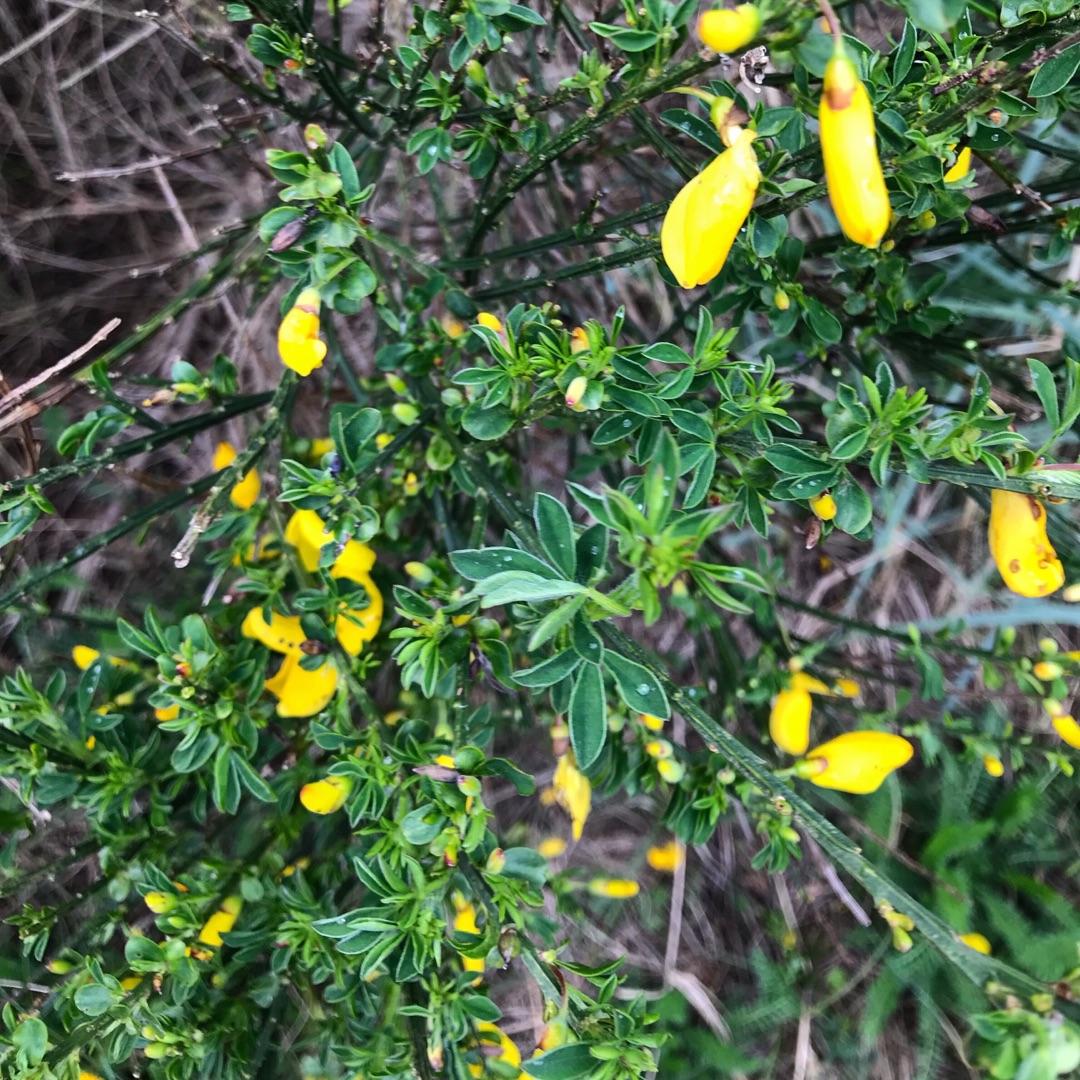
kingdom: Plantae
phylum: Tracheophyta
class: Magnoliopsida
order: Fabales
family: Fabaceae
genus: Cytisus
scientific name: Cytisus scoparius
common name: Almindelig gyvel
